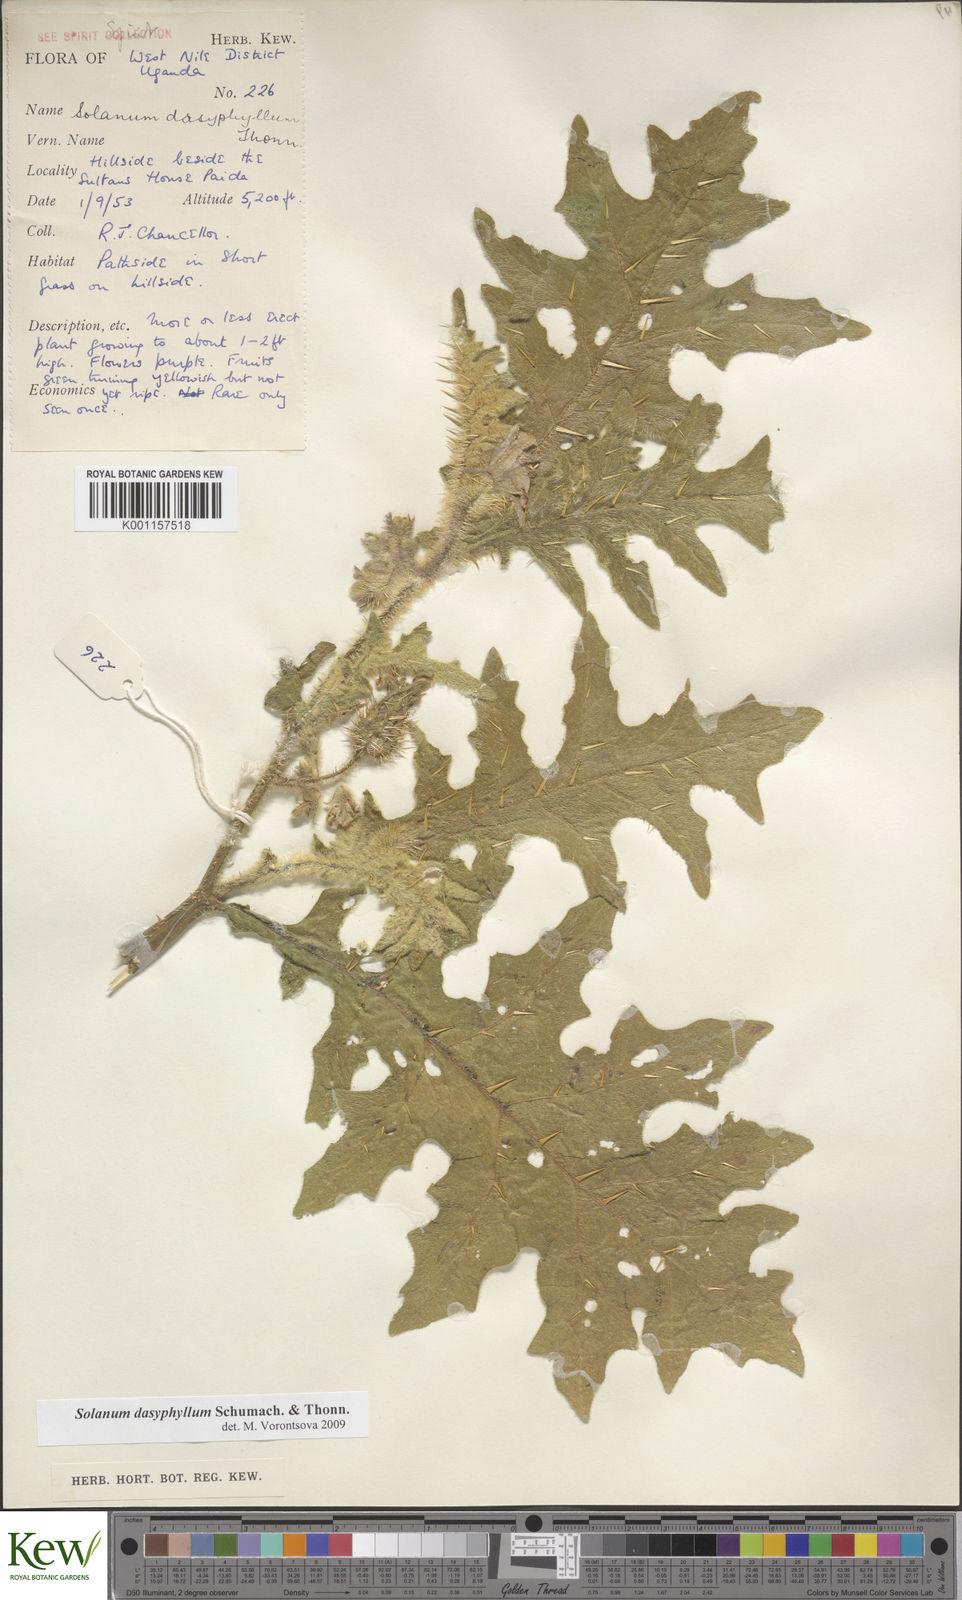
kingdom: Plantae
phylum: Tracheophyta
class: Magnoliopsida
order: Solanales
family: Solanaceae
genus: Solanum
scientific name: Solanum dasyphyllum
